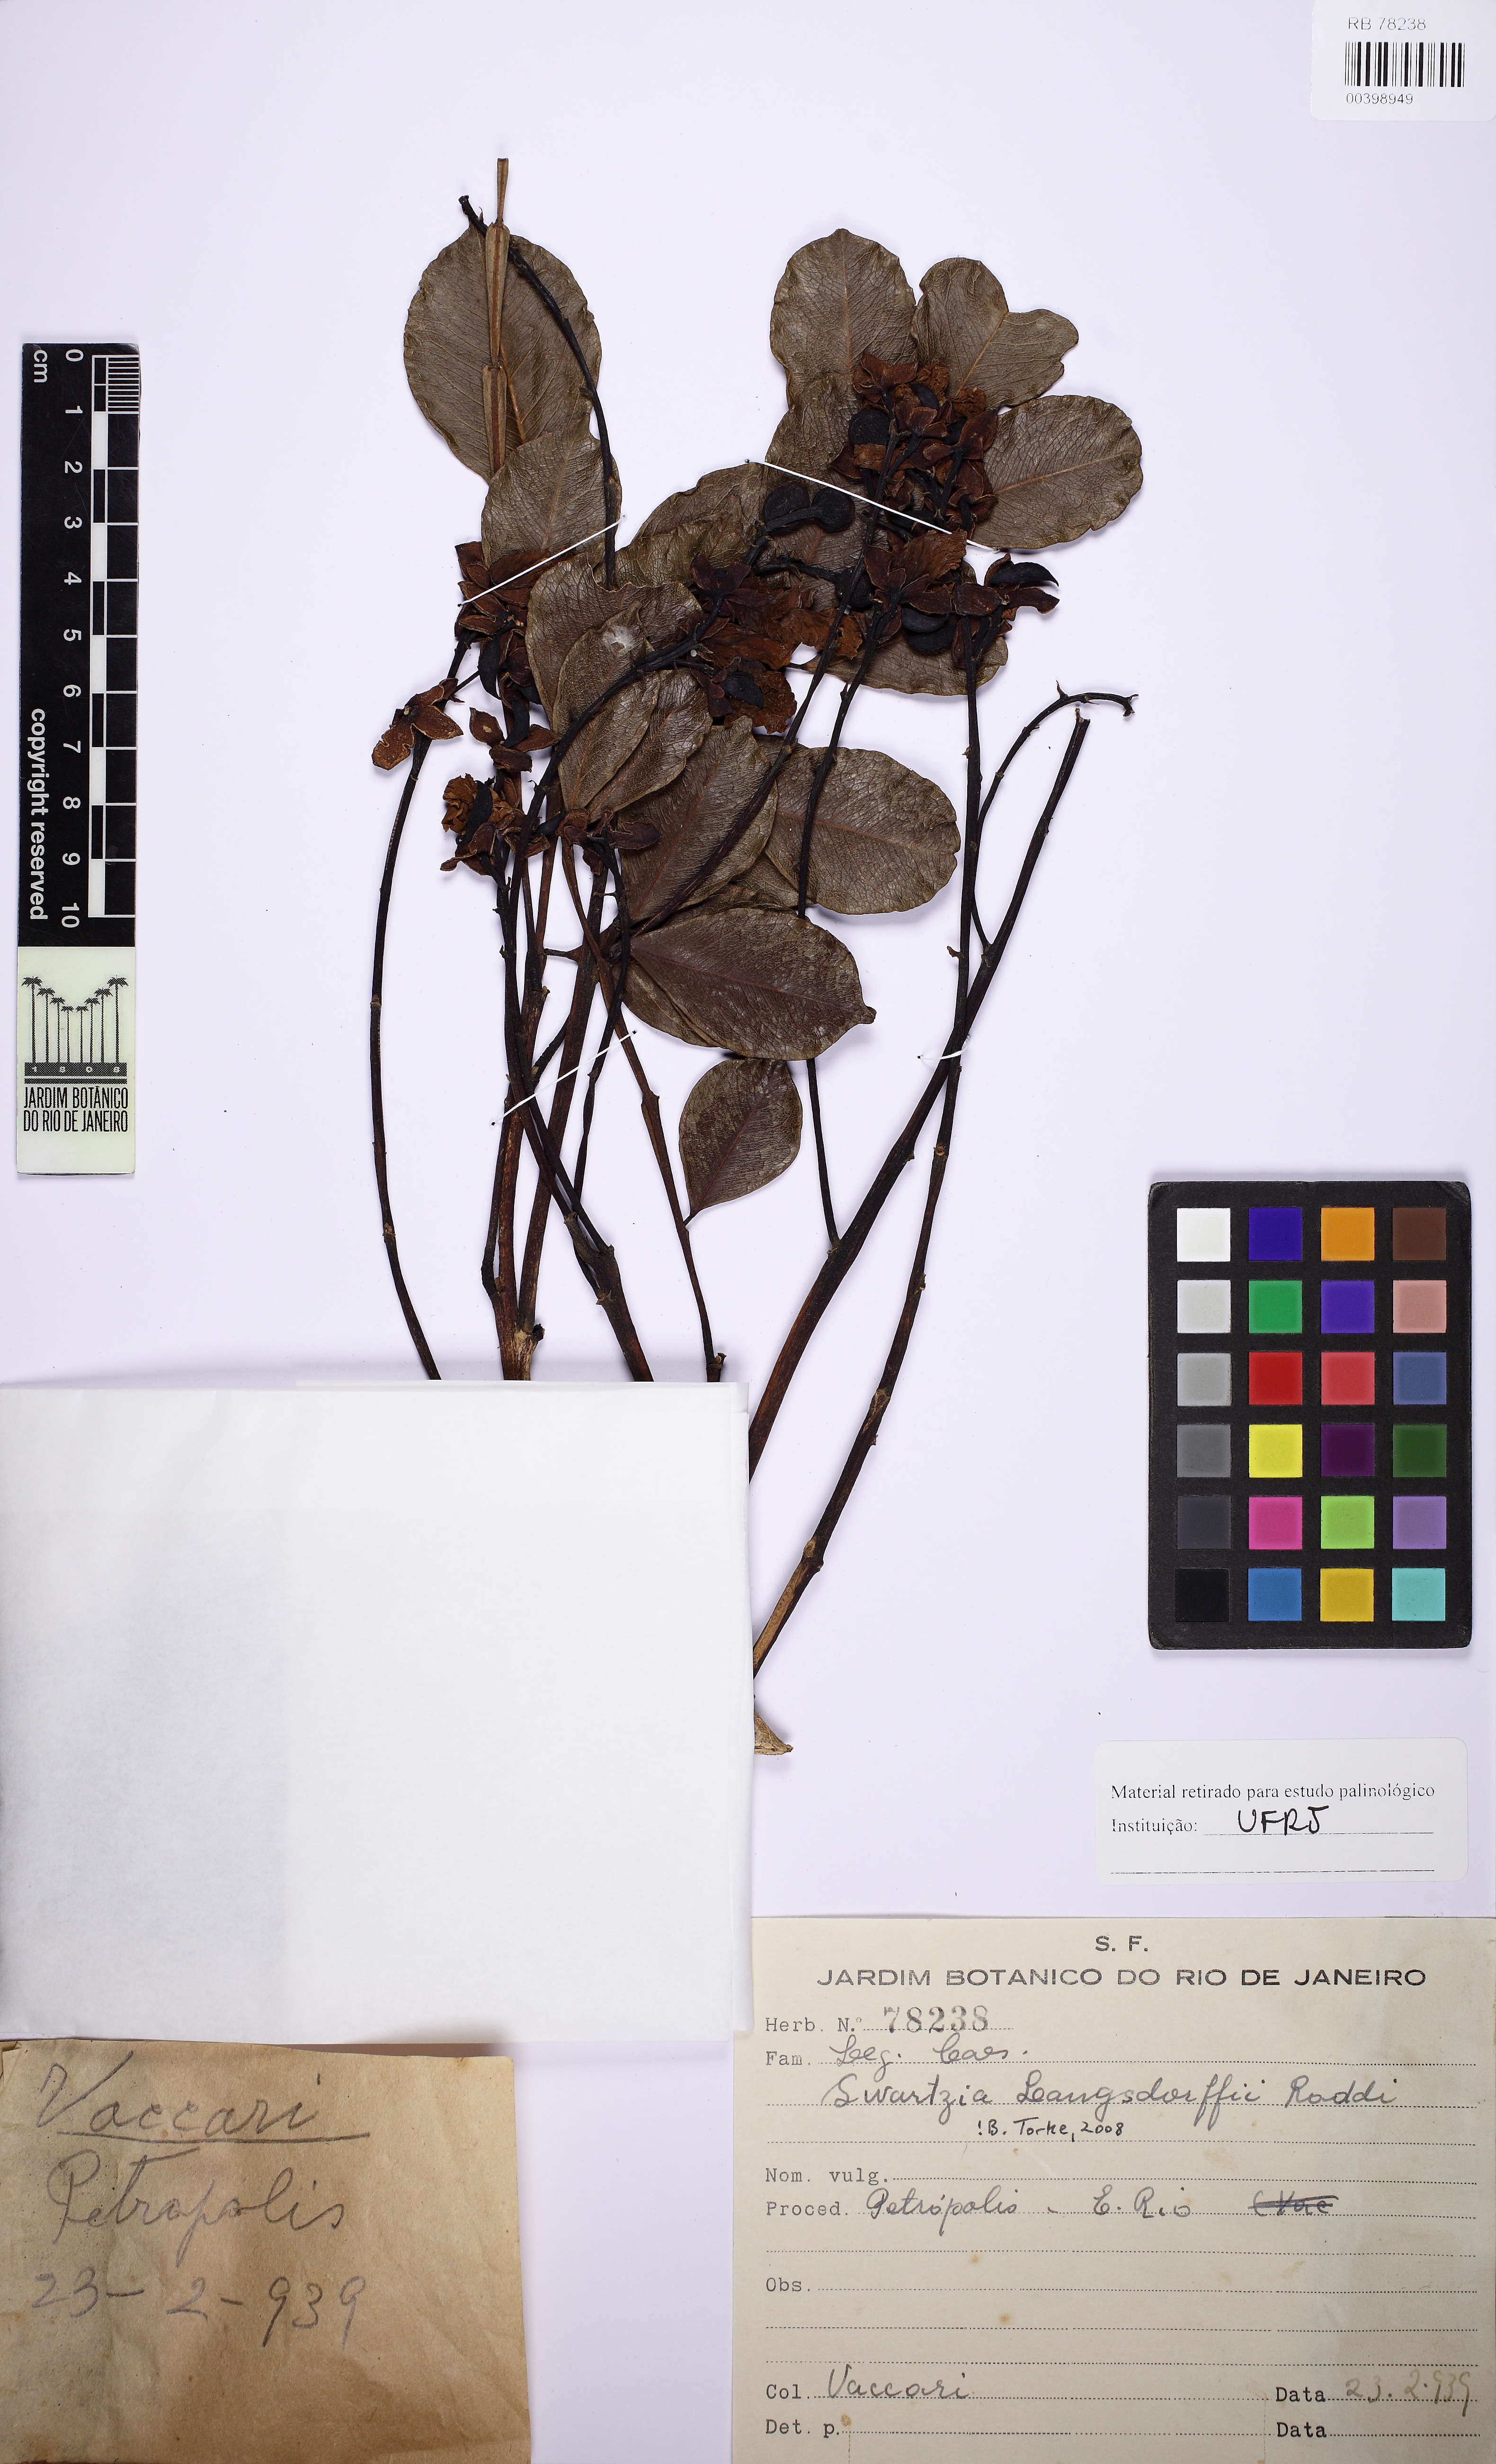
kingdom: Plantae
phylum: Tracheophyta
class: Magnoliopsida
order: Fabales
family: Fabaceae
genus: Swartzia
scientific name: Swartzia langsdorffii
